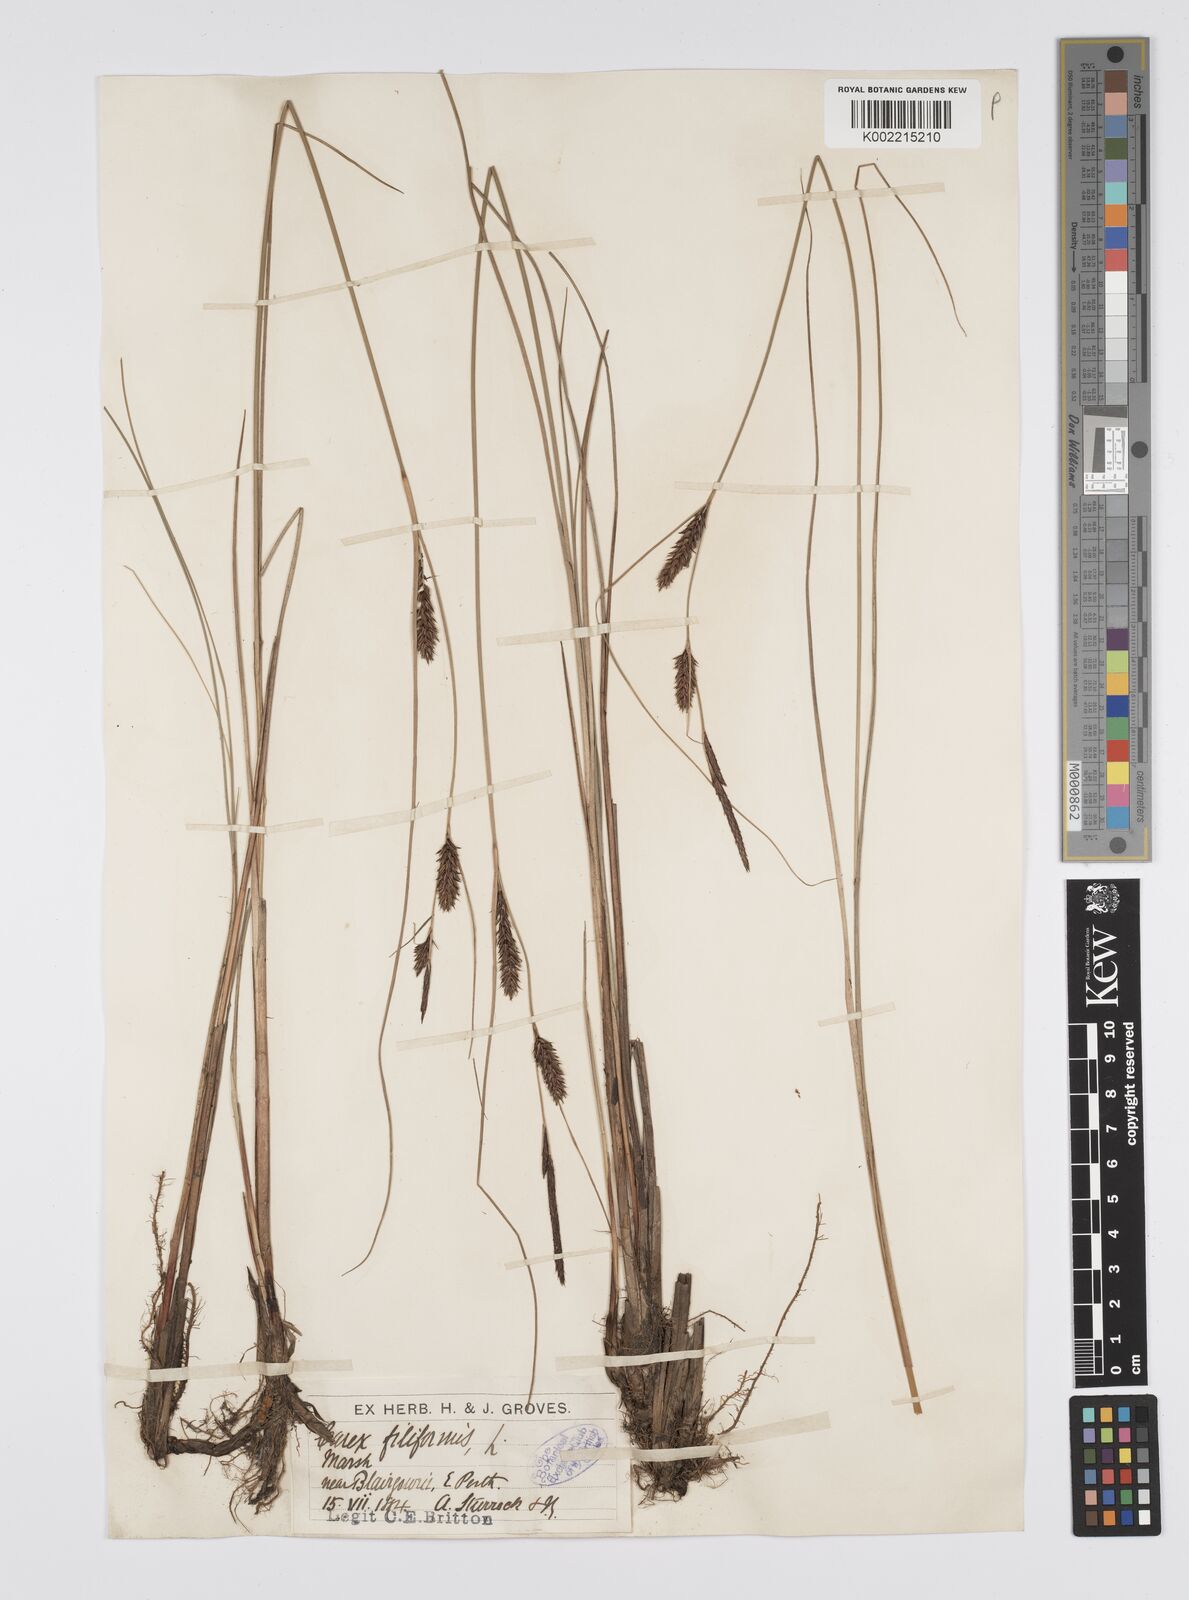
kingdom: Plantae
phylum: Tracheophyta
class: Liliopsida
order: Poales
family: Cyperaceae
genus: Carex
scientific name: Carex lasiocarpa
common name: Slender sedge
